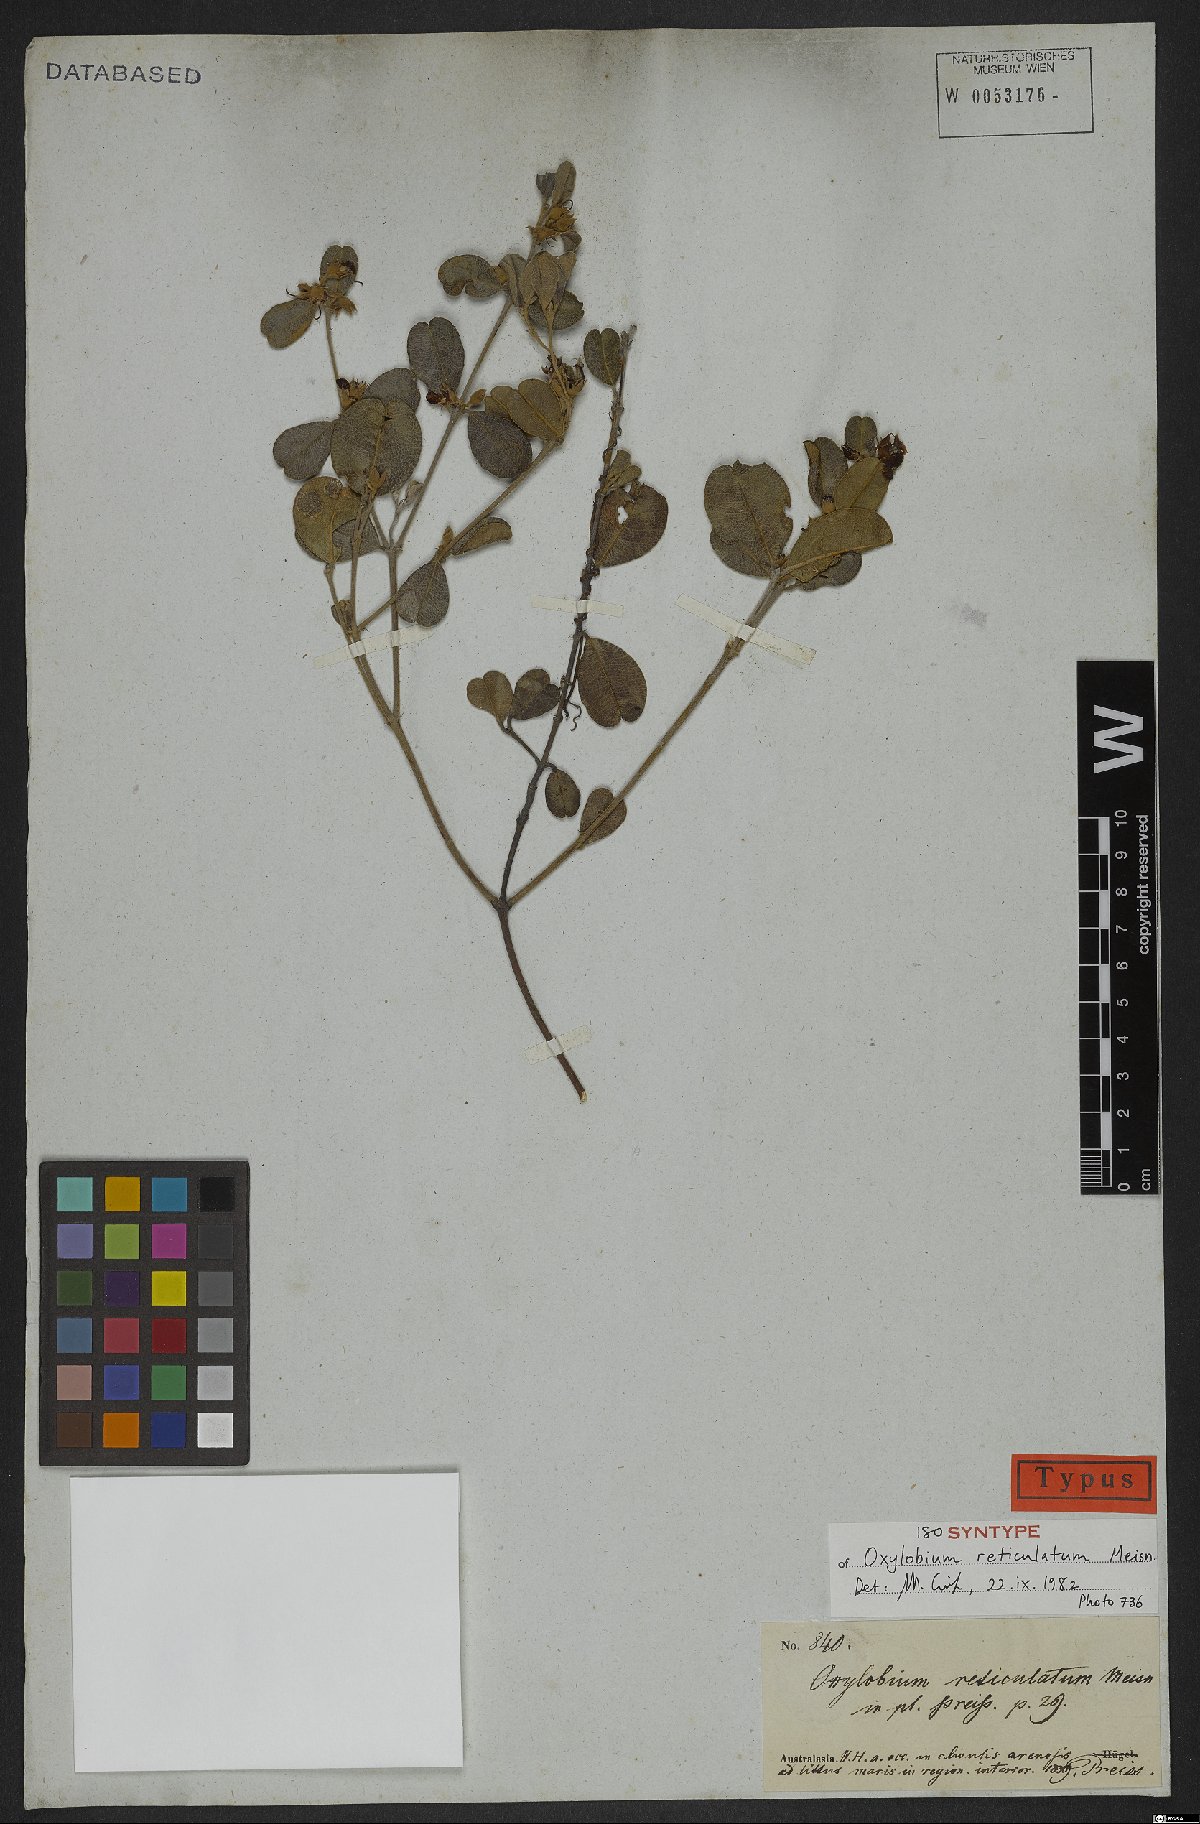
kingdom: Plantae
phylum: Tracheophyta
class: Magnoliopsida
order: Fabales
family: Fabaceae
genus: Gastrolobium
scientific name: Gastrolobium nervosum
